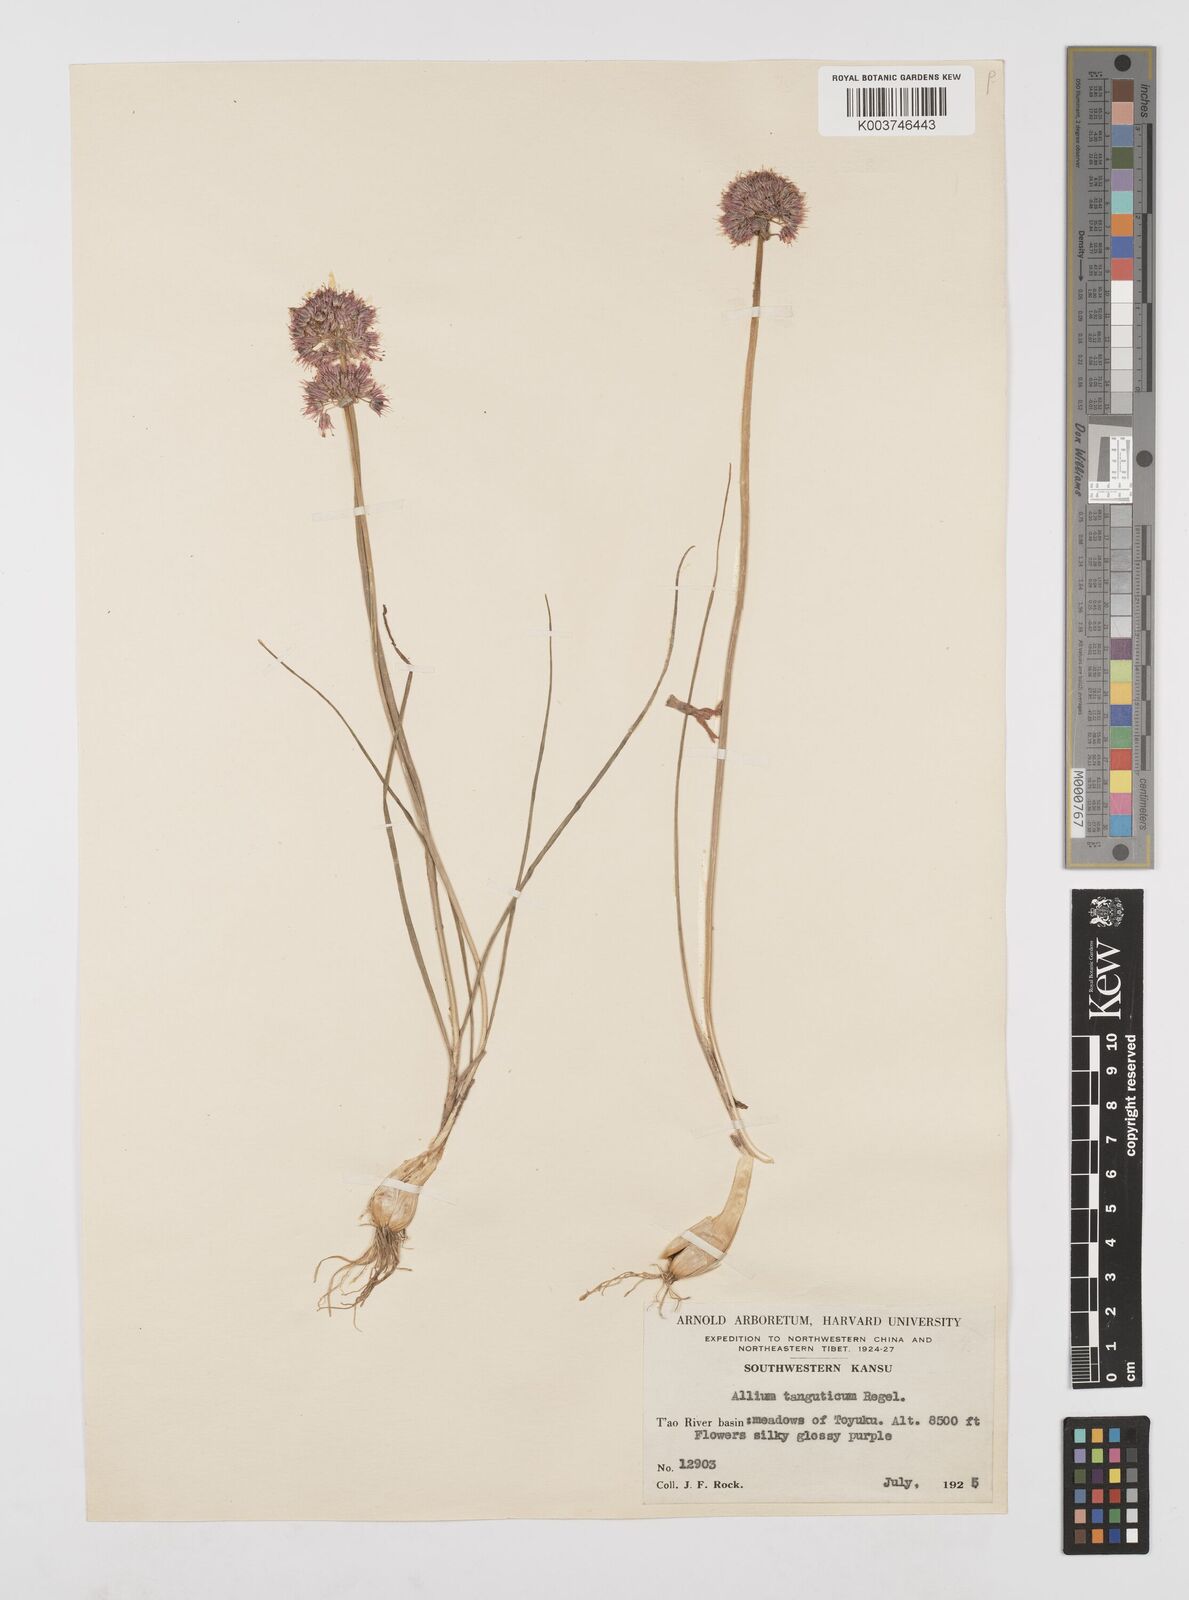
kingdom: Plantae
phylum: Tracheophyta
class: Liliopsida
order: Asparagales
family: Amaryllidaceae
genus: Allium
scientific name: Allium tanguticum
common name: Lavender globe-lily
